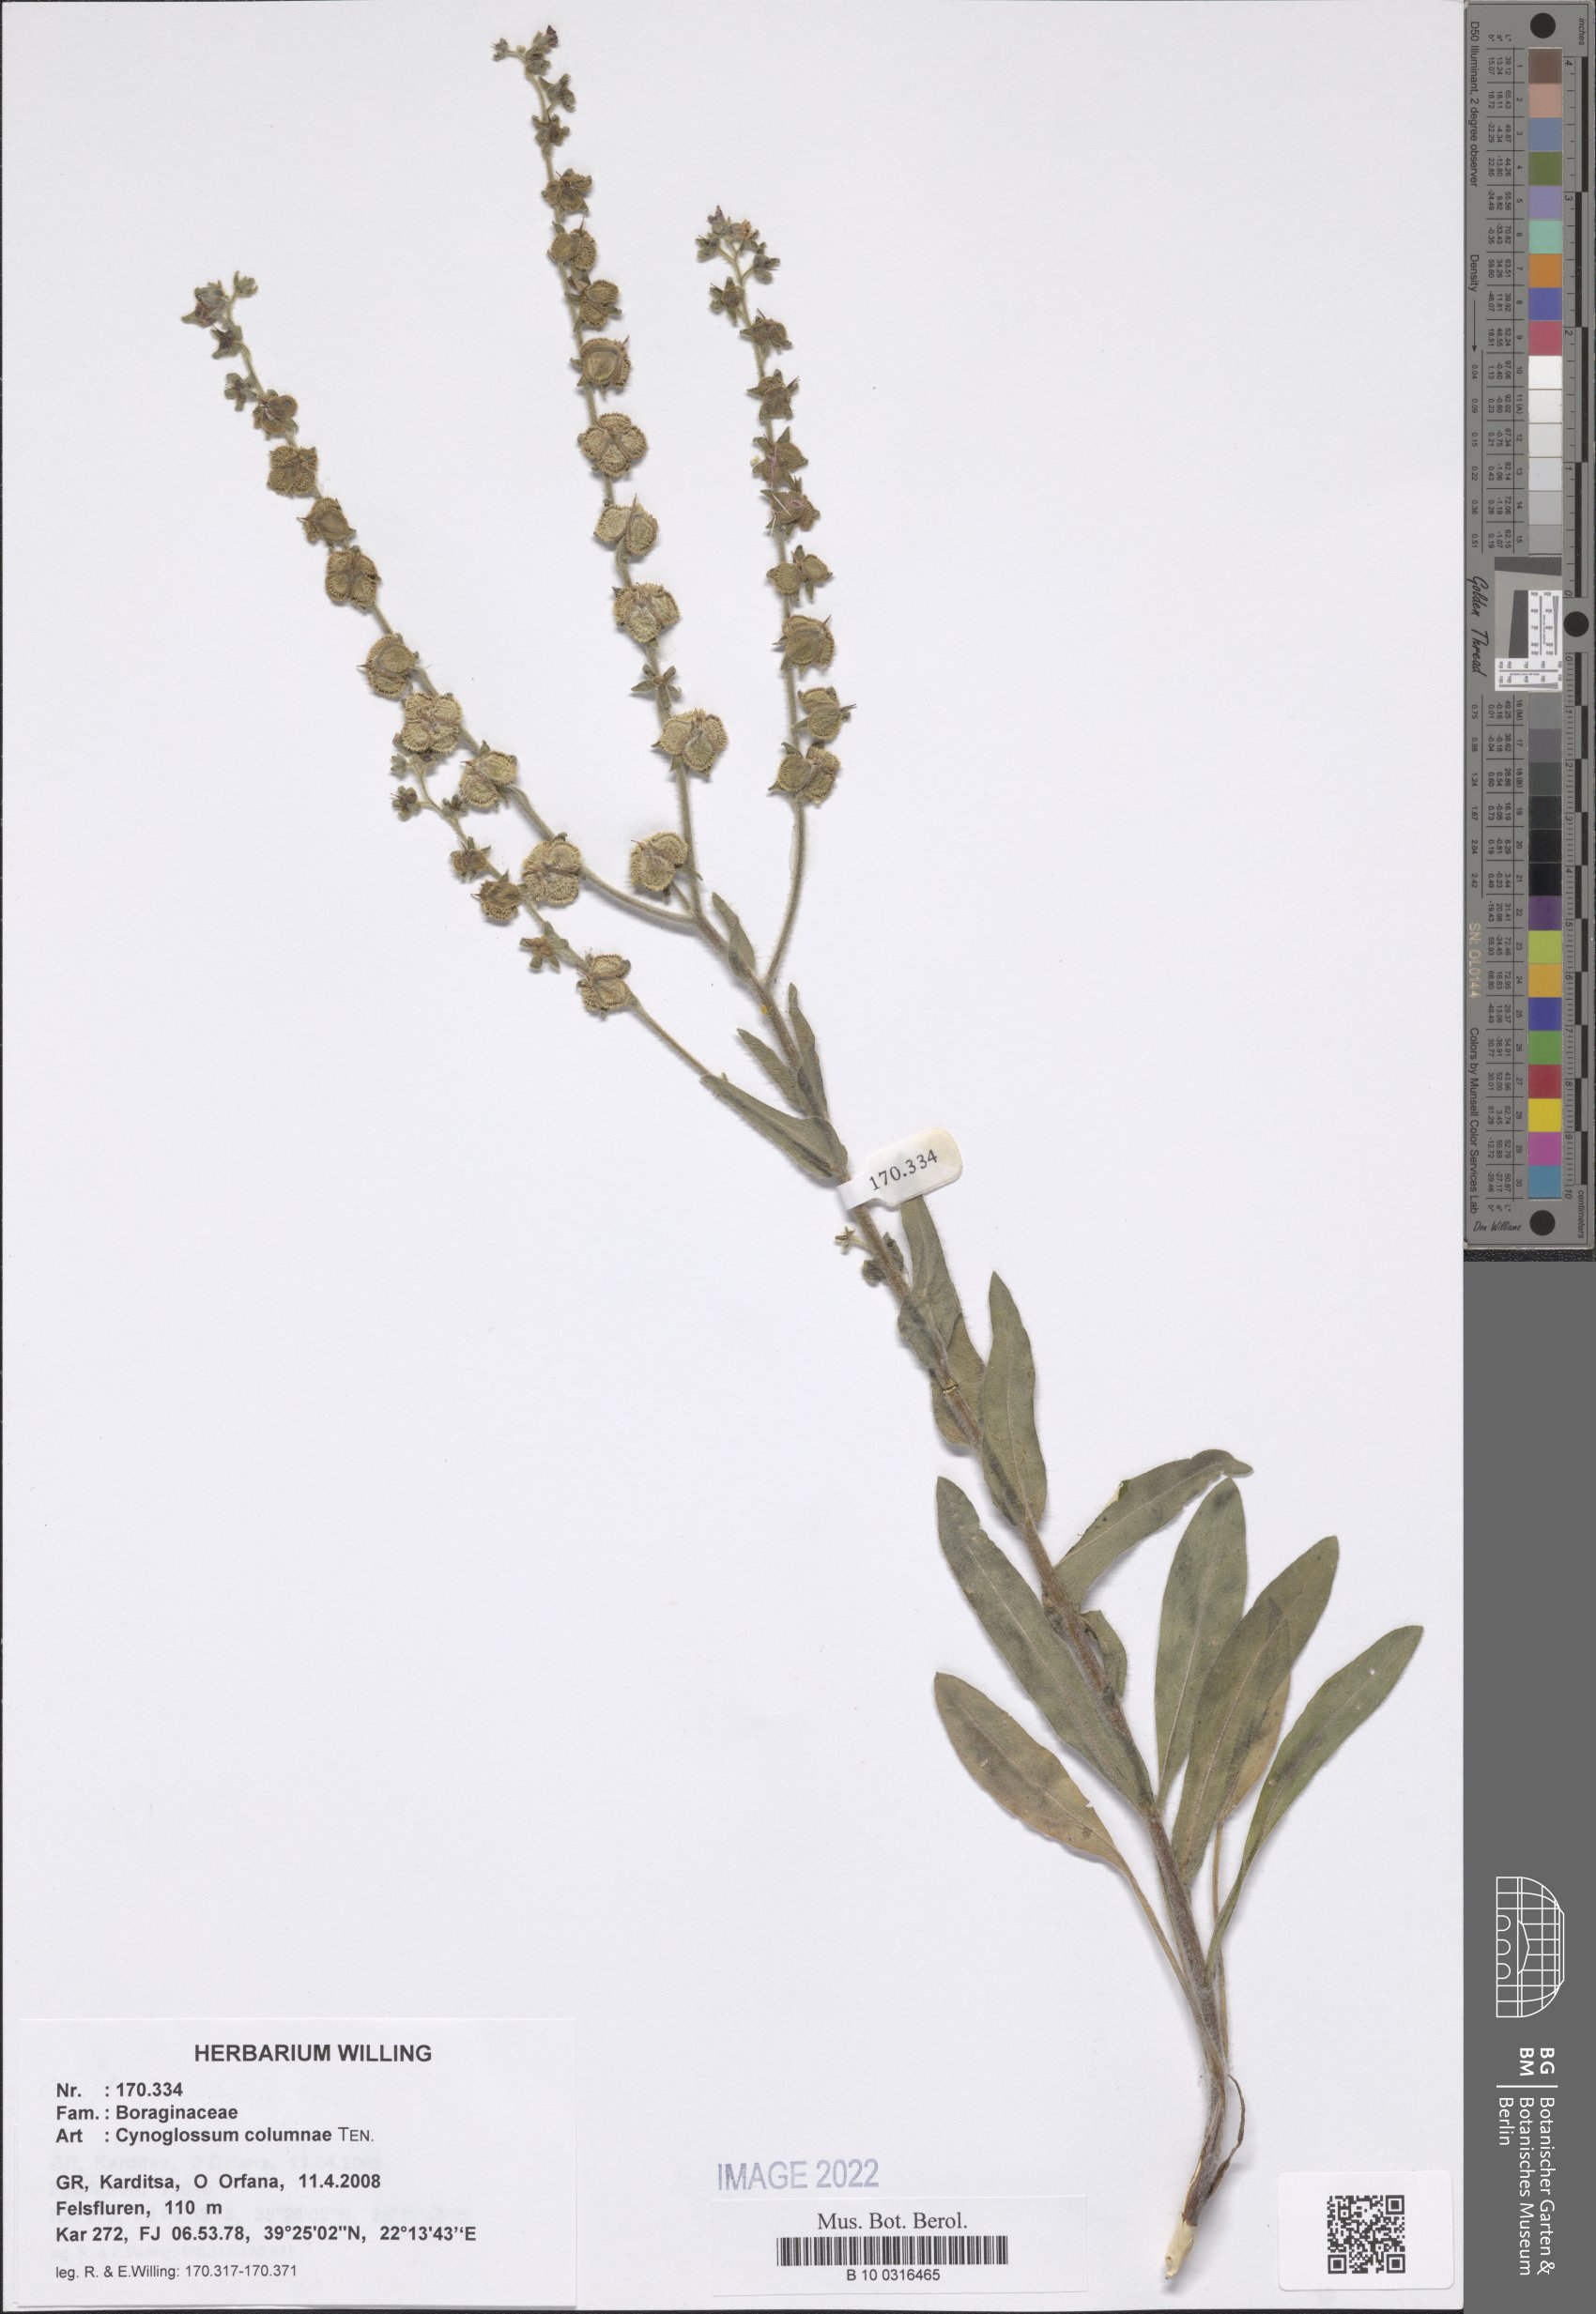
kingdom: Plantae
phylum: Tracheophyta
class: Magnoliopsida
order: Boraginales
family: Boraginaceae
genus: Rindera
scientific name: Rindera columnae
